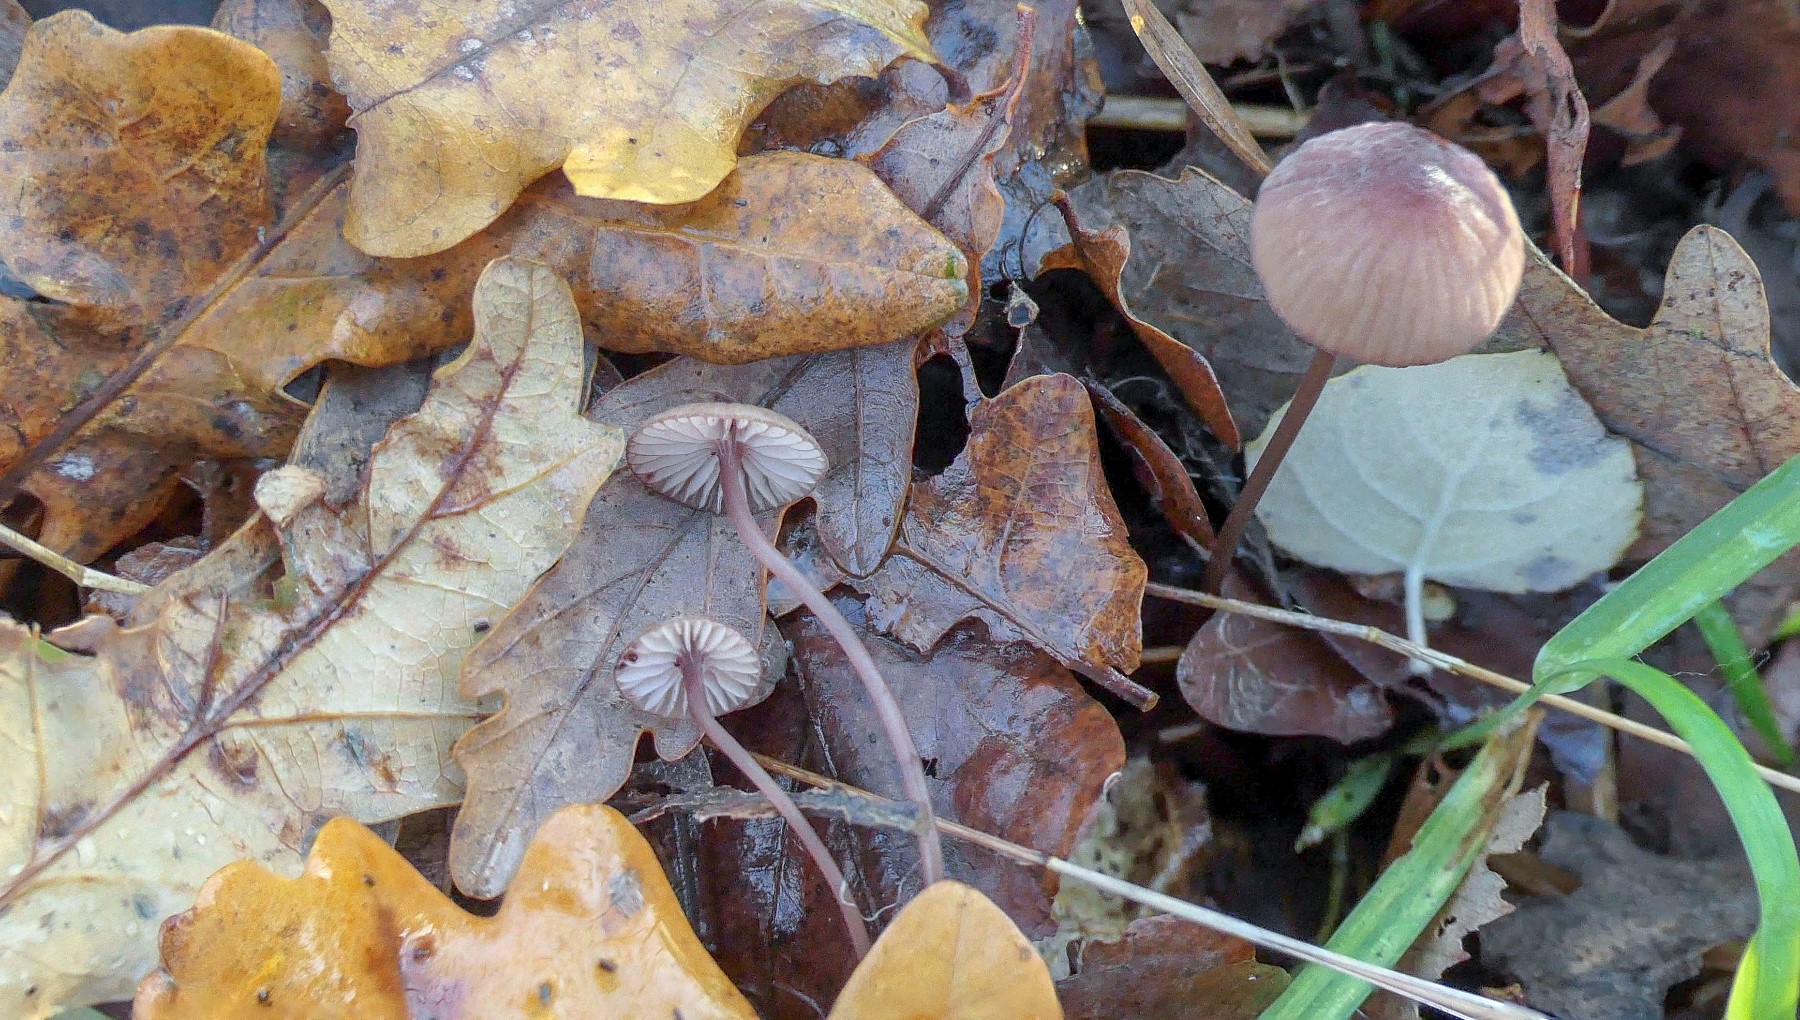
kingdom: Fungi
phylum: Basidiomycota
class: Agaricomycetes
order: Agaricales
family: Mycenaceae
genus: Mycena
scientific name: Mycena sanguinolenta
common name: rødmælket huesvamp
